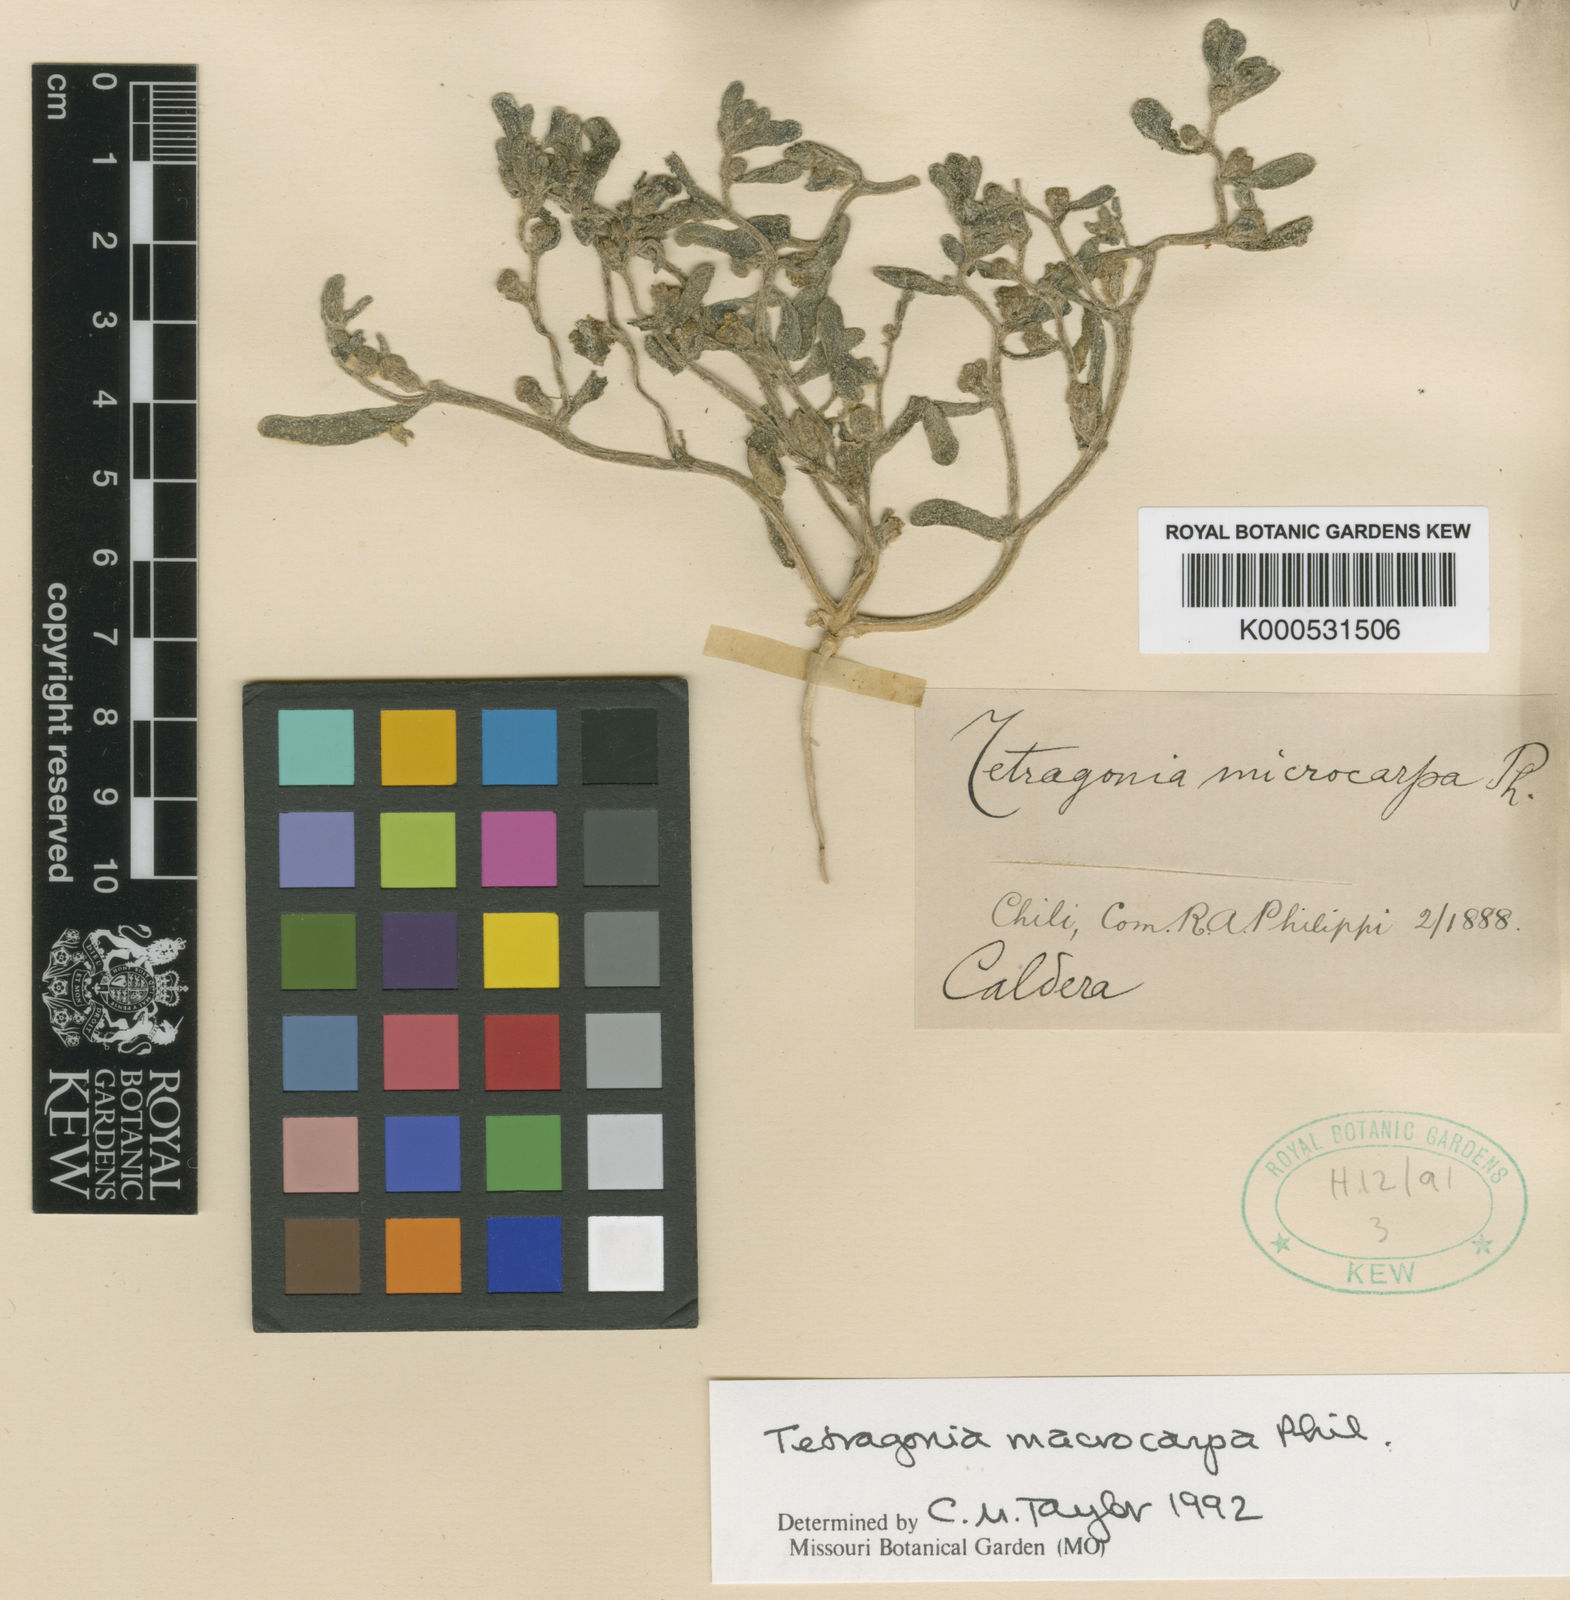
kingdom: Plantae
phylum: Tracheophyta
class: Magnoliopsida
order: Caryophyllales
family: Aizoaceae
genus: Tetragonia
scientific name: Tetragonia macrocarpa
